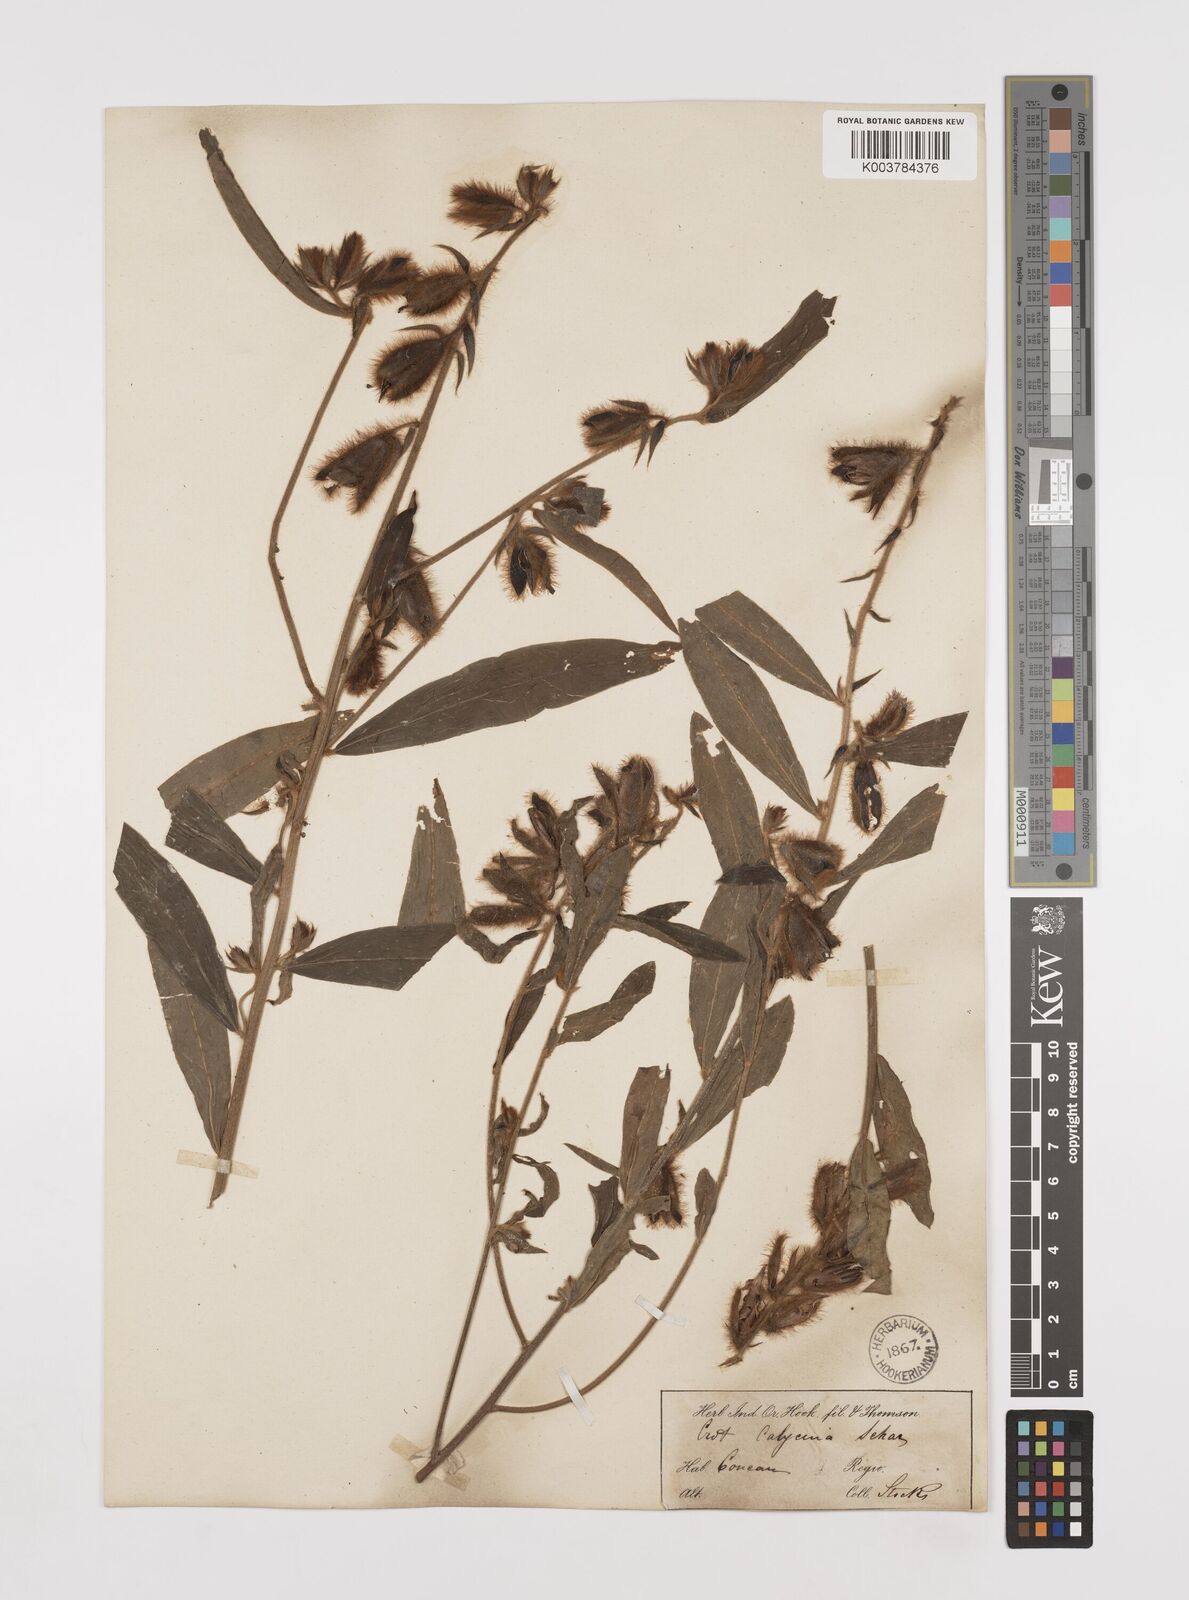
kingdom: Plantae
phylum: Tracheophyta
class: Magnoliopsida
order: Fabales
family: Fabaceae
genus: Crotalaria
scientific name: Crotalaria calycina
